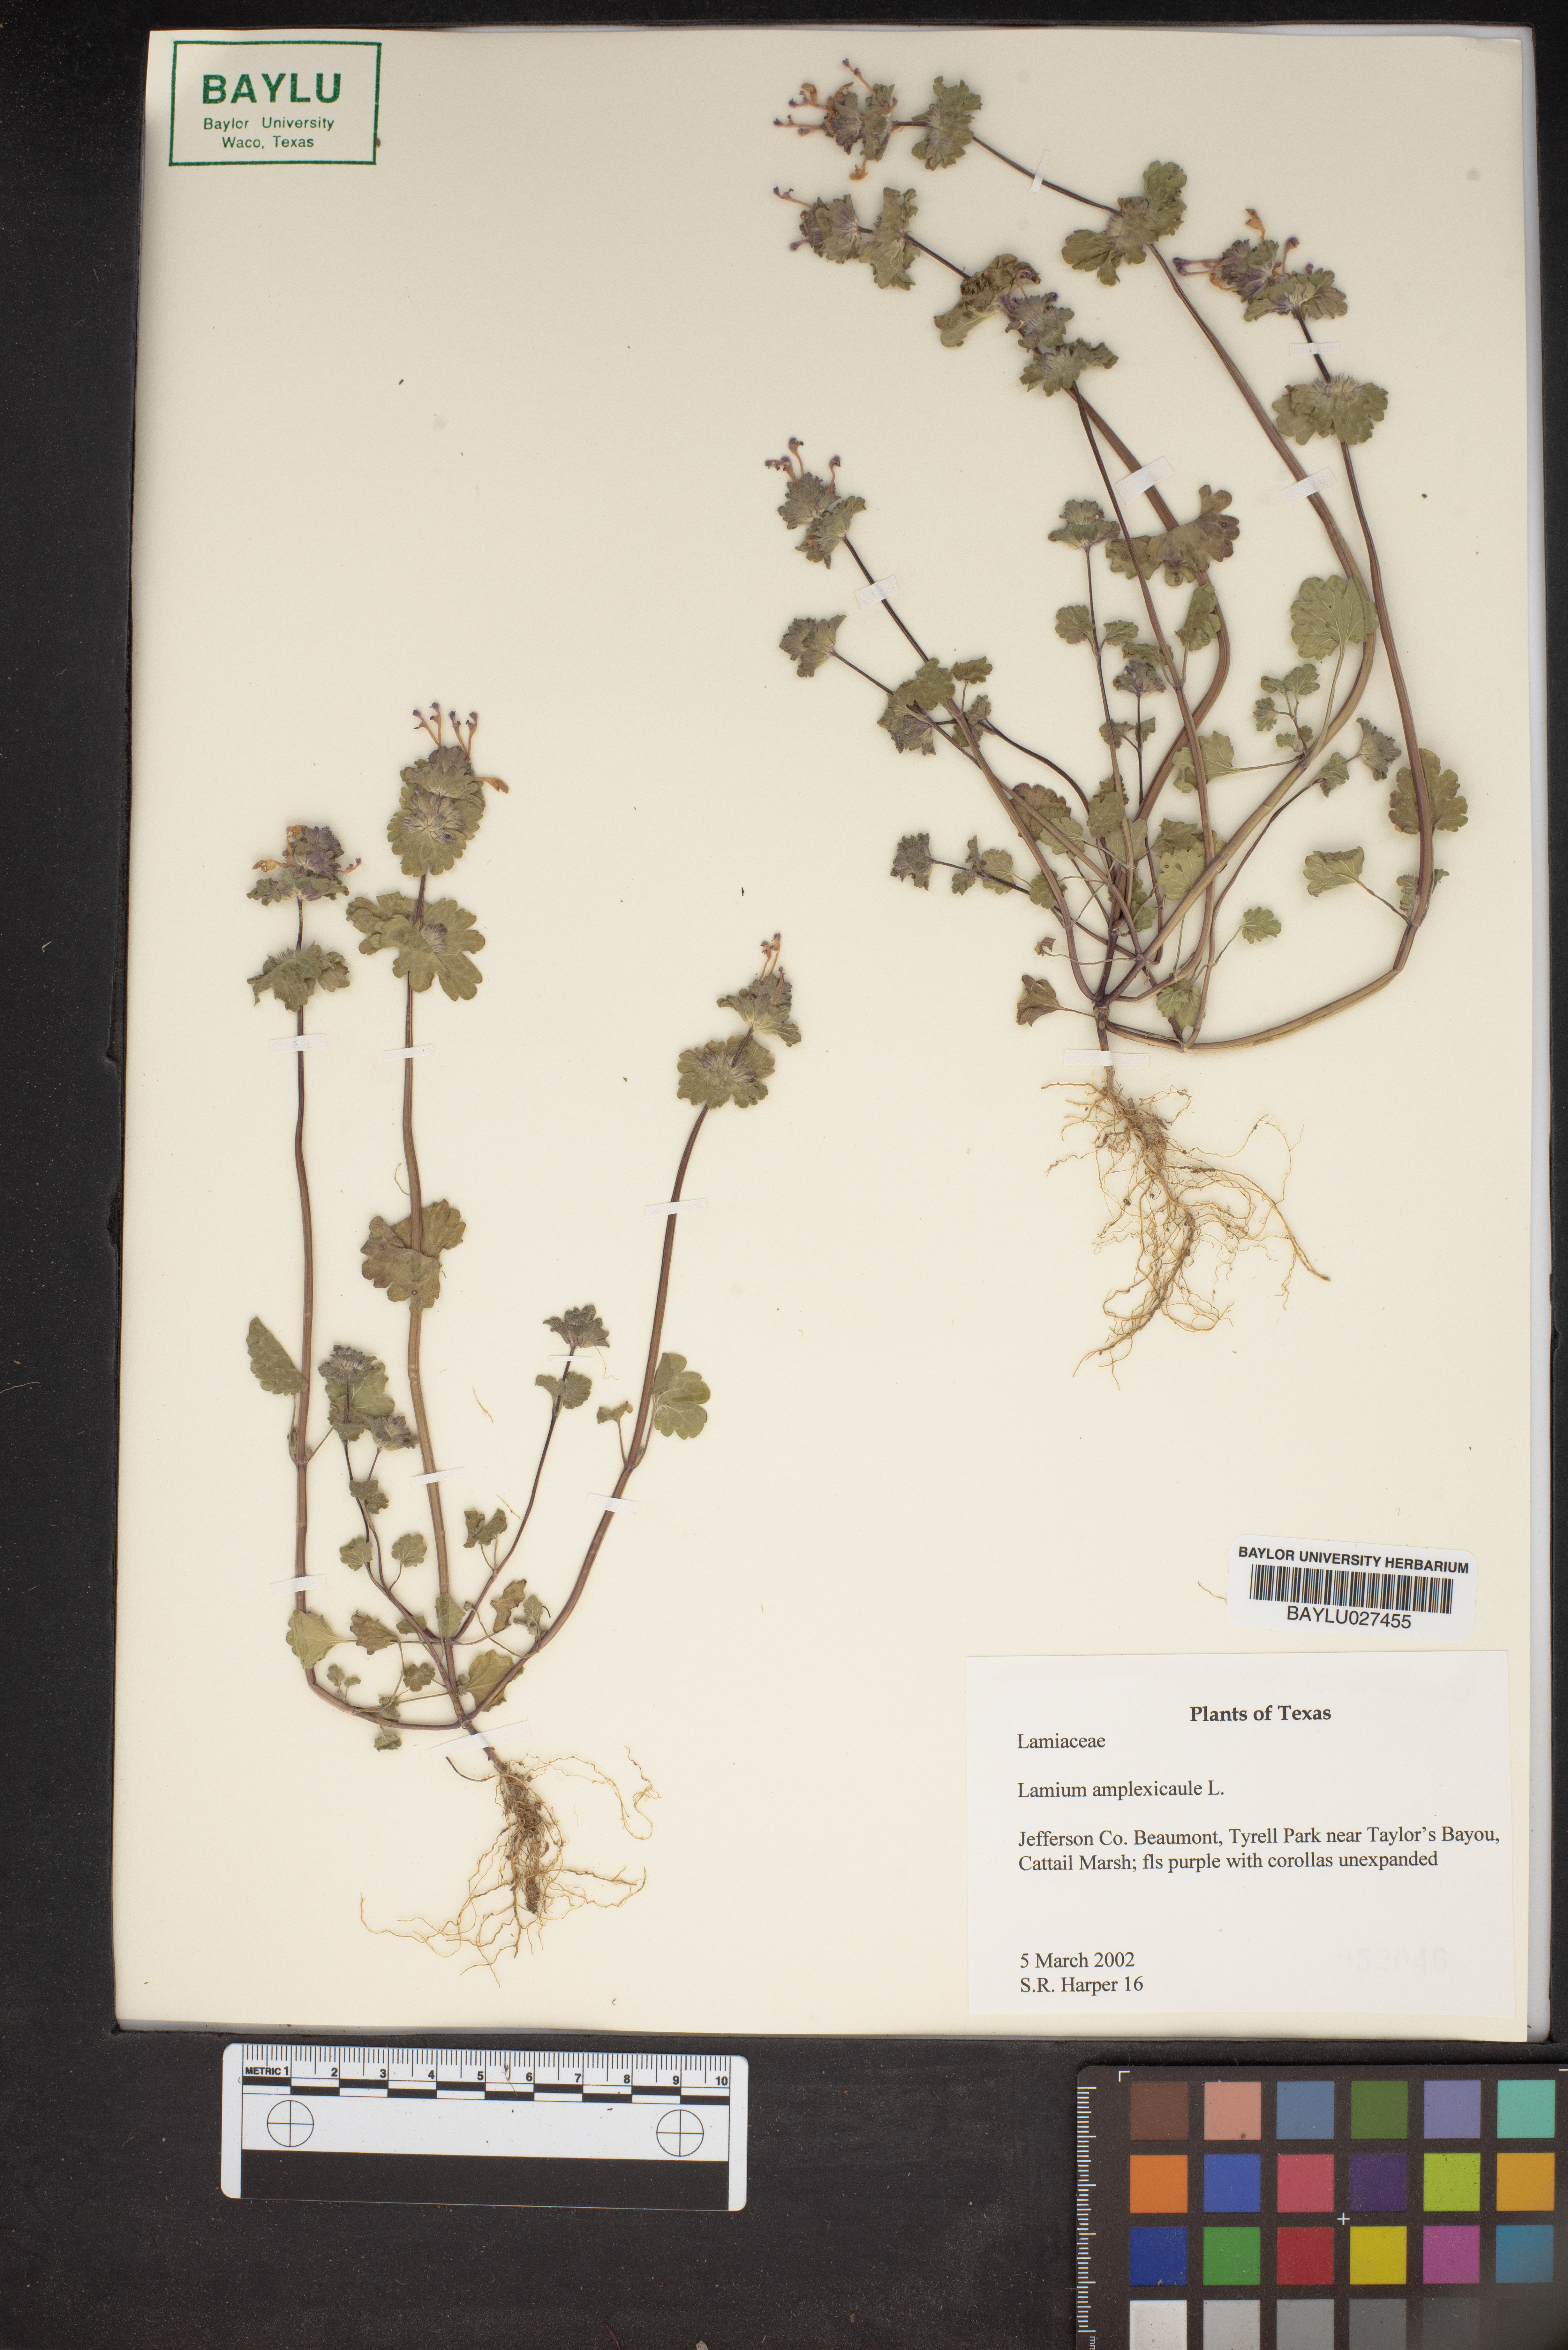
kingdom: Plantae
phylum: Tracheophyta
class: Magnoliopsida
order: Lamiales
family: Lamiaceae
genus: Lamium
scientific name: Lamium amplexicaule
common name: Henbit dead-nettle
